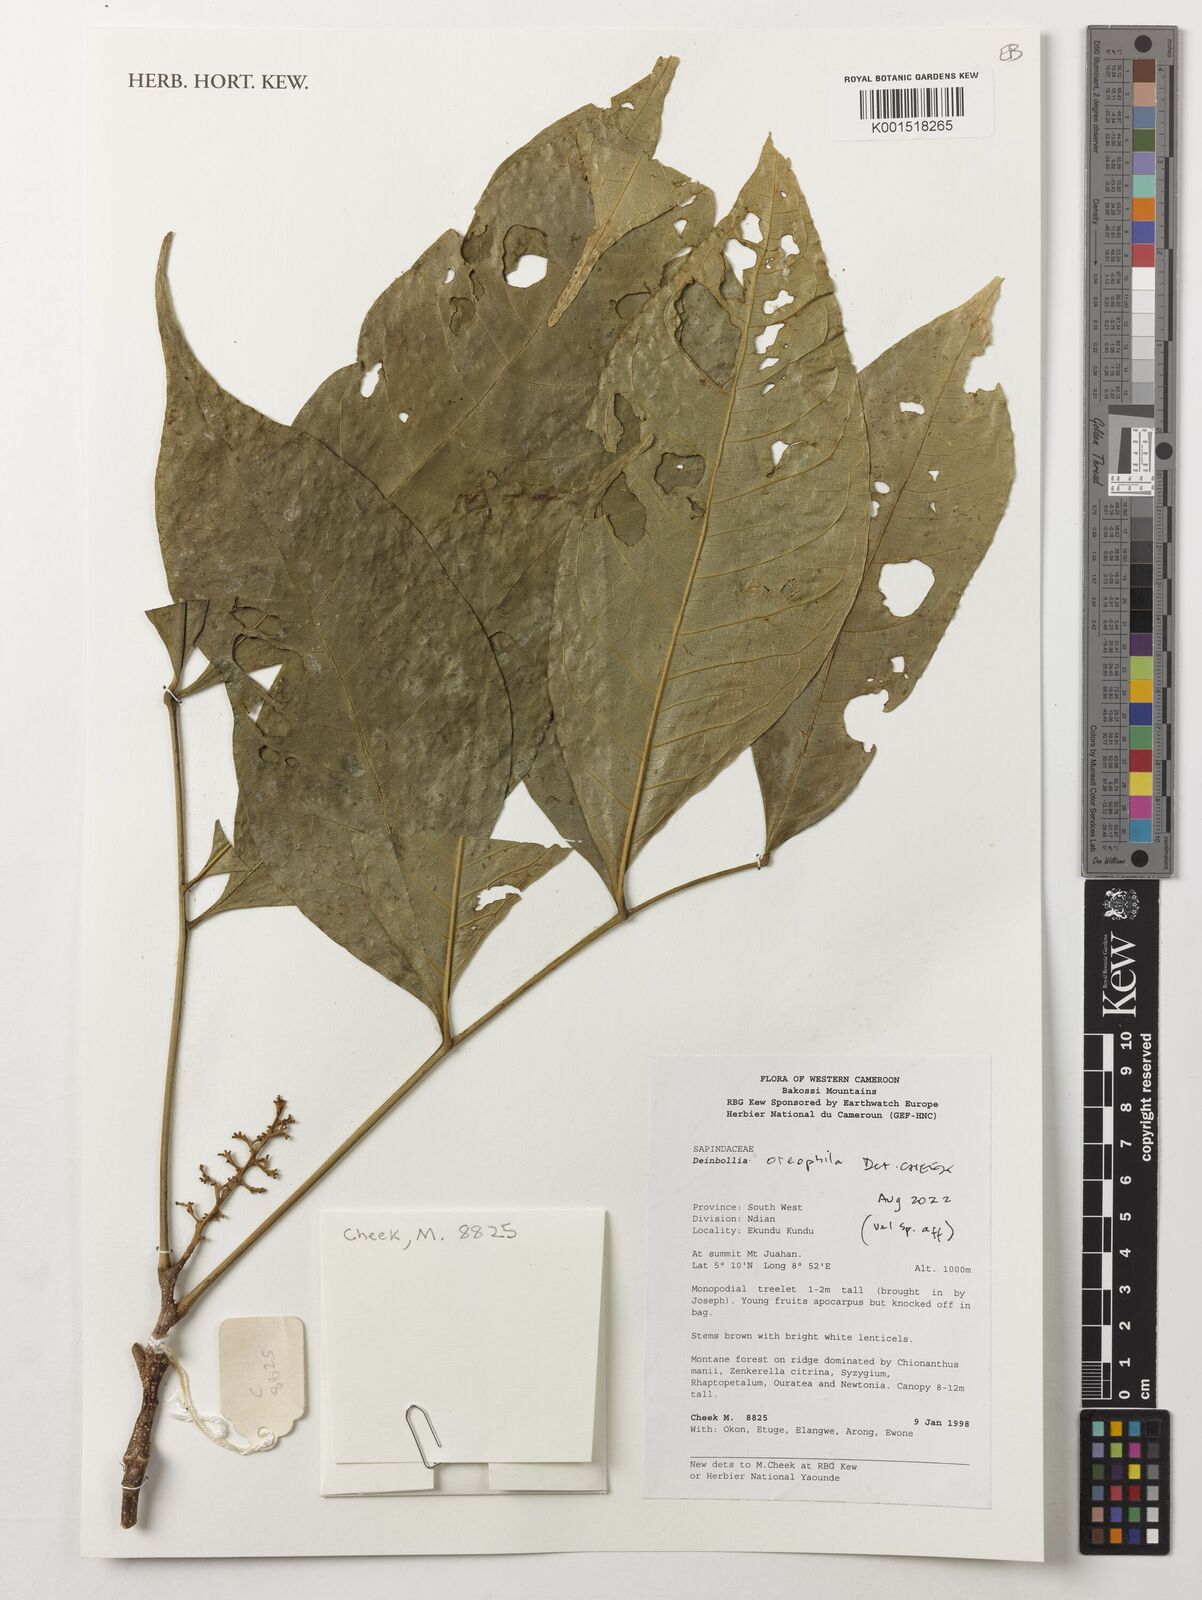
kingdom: Plantae
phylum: Tracheophyta
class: Magnoliopsida
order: Sapindales
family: Sapindaceae
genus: Deinbollia
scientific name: Deinbollia oreophila
